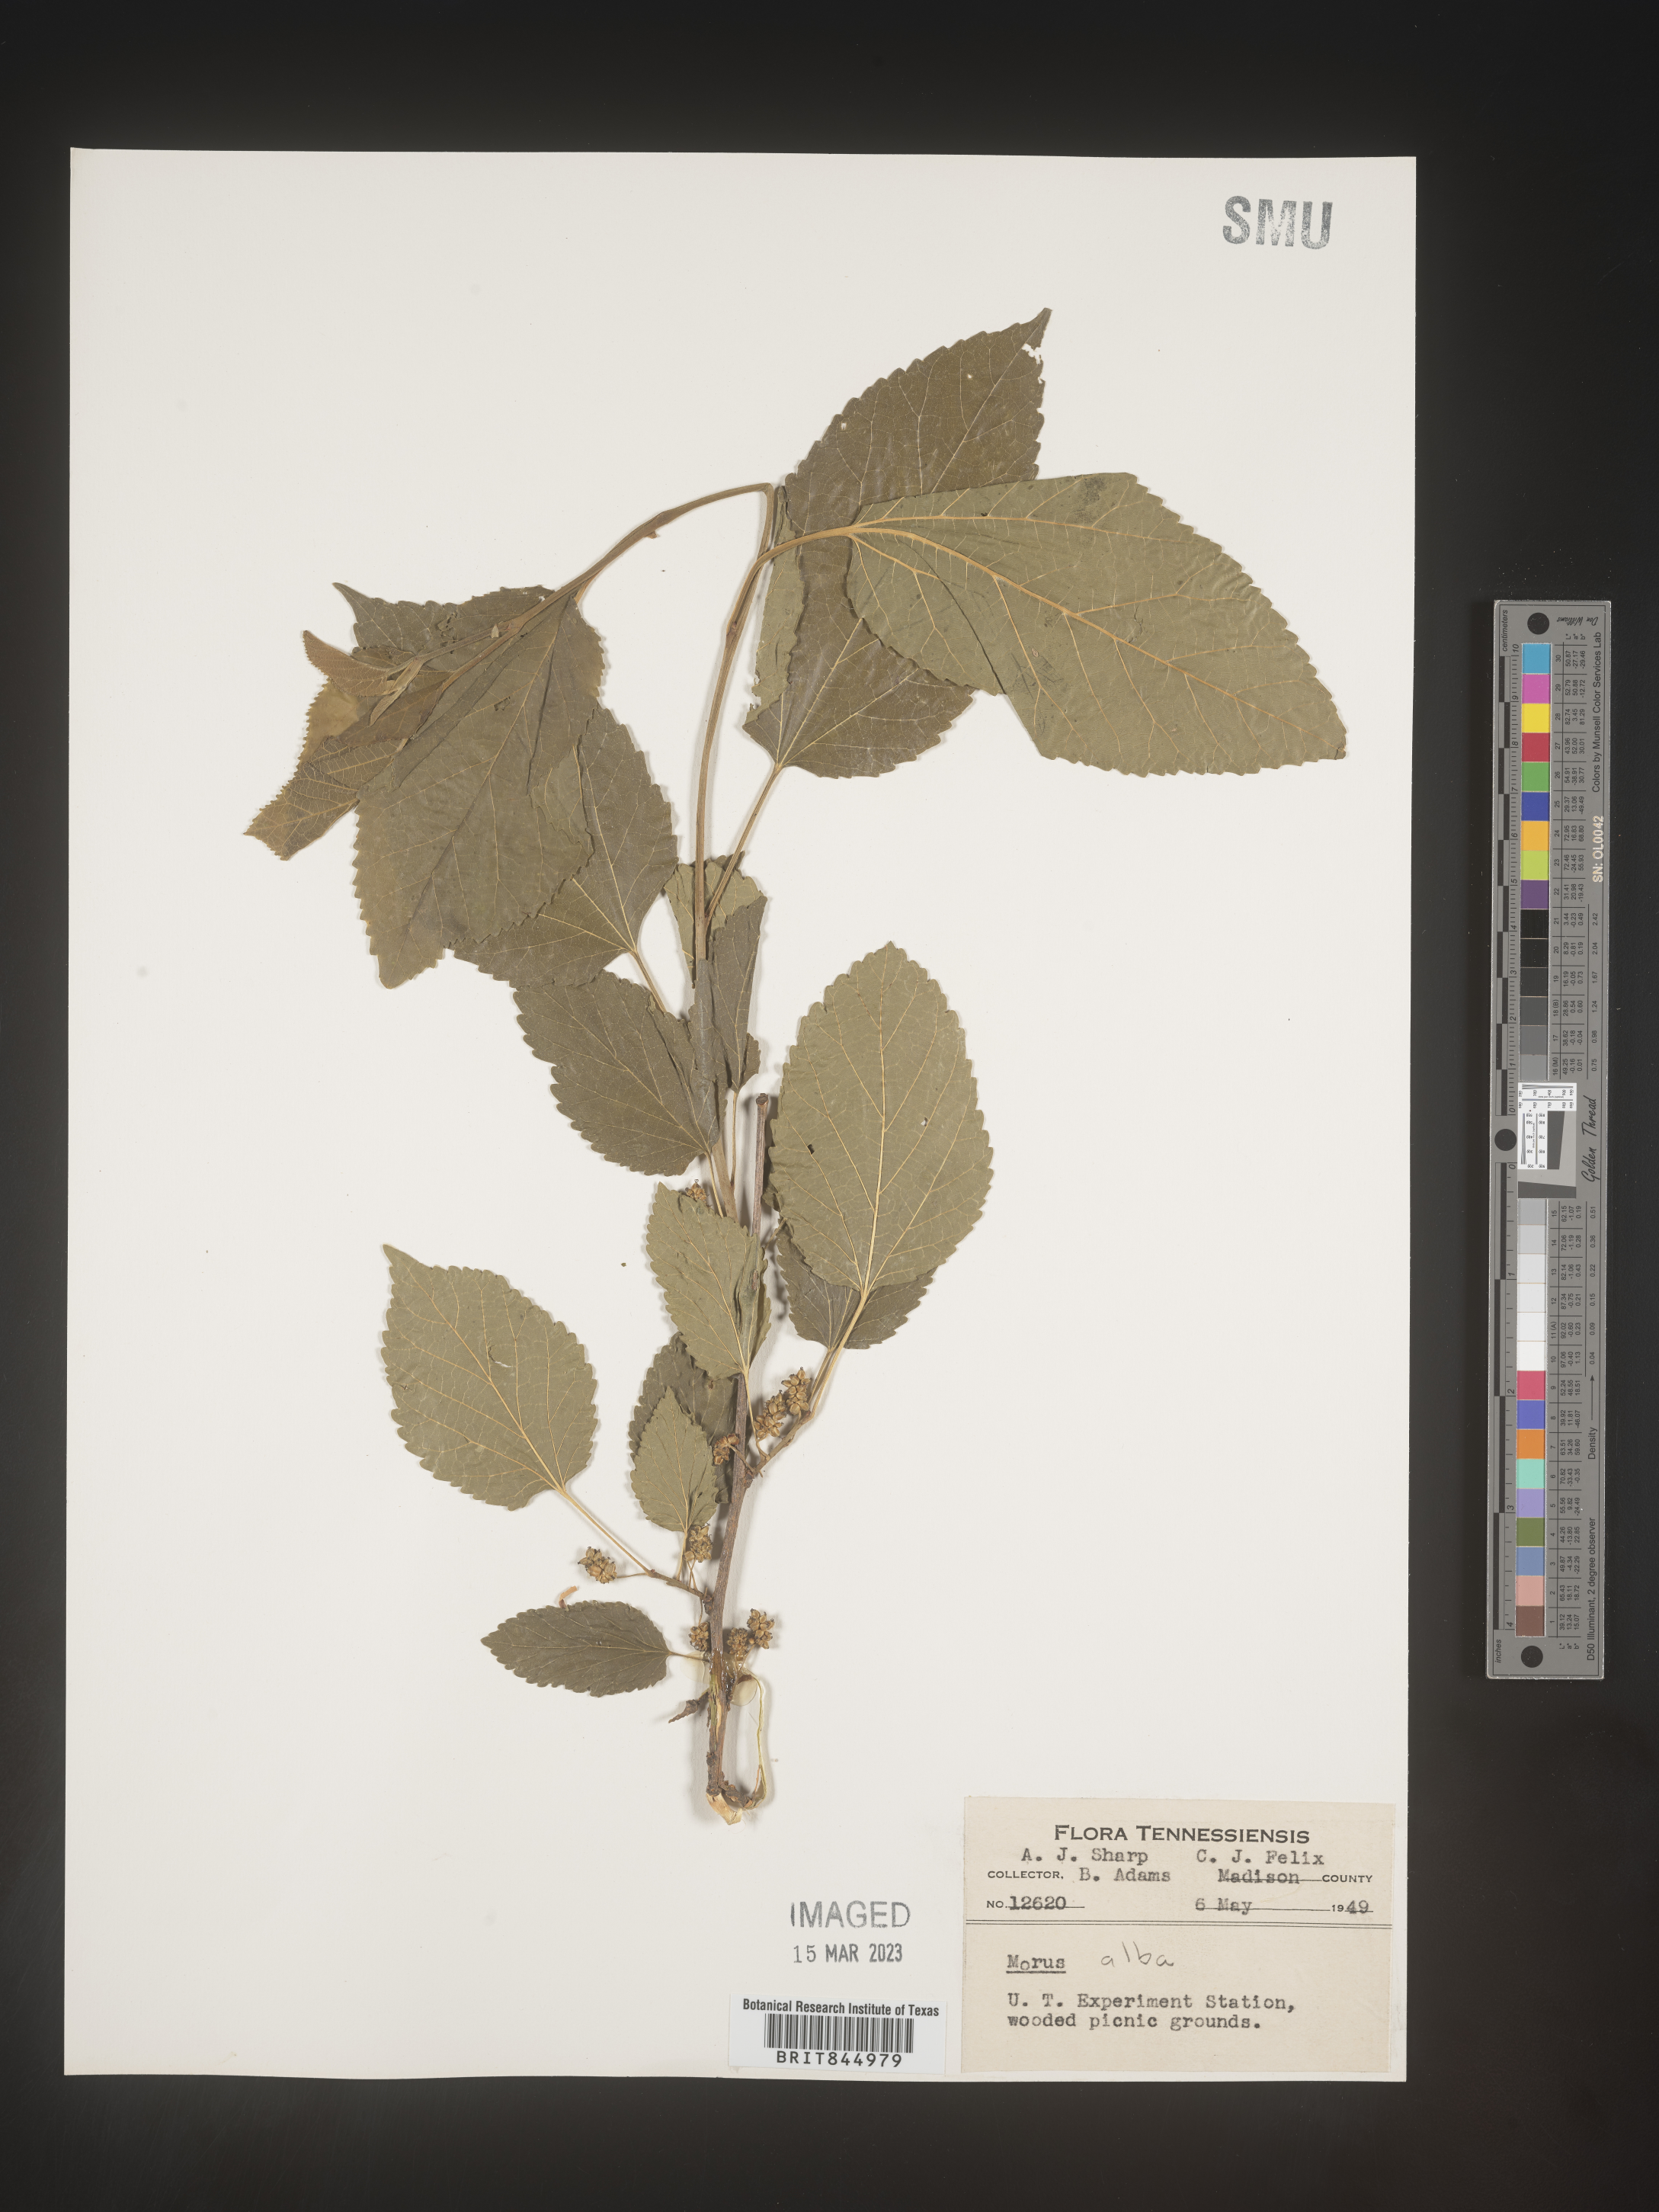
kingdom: Plantae
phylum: Tracheophyta
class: Magnoliopsida
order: Rosales
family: Moraceae
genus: Morus
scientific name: Morus alba
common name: White mulberry
